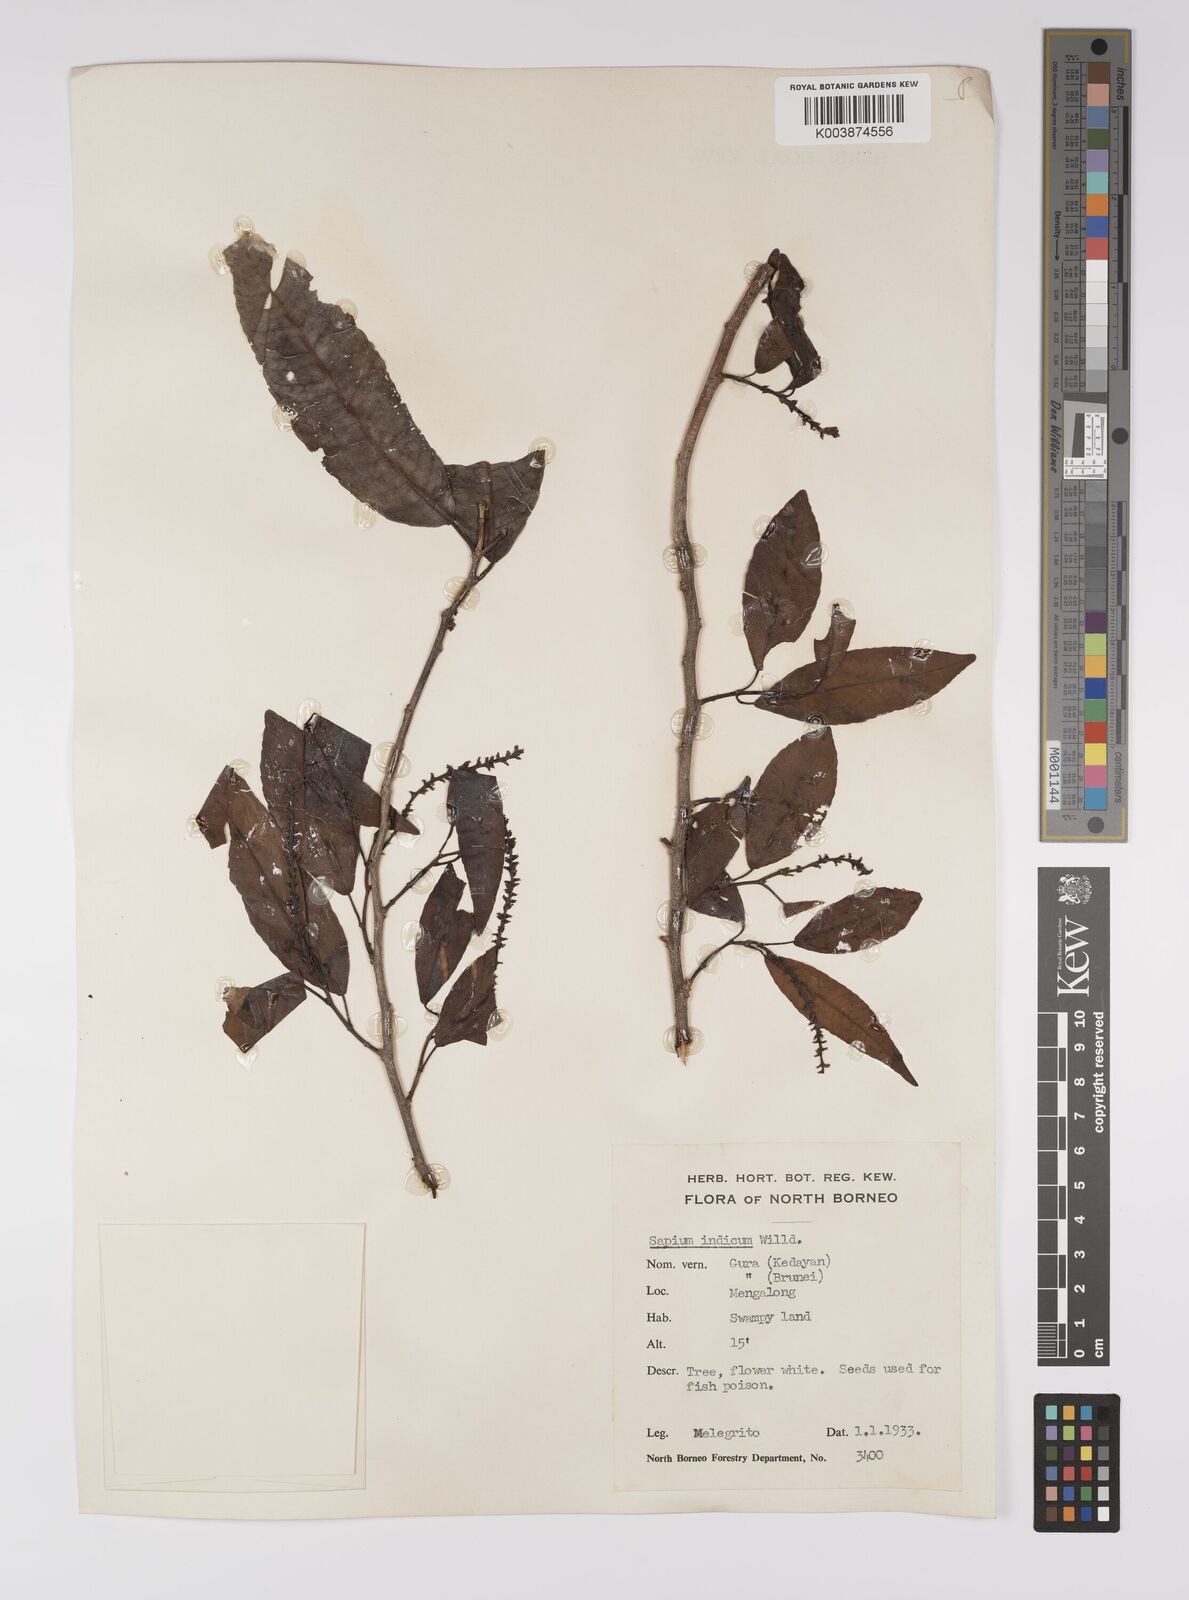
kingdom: Plantae
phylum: Tracheophyta
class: Magnoliopsida
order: Malpighiales
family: Euphorbiaceae
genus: Shirakiopsis
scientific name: Shirakiopsis indica
